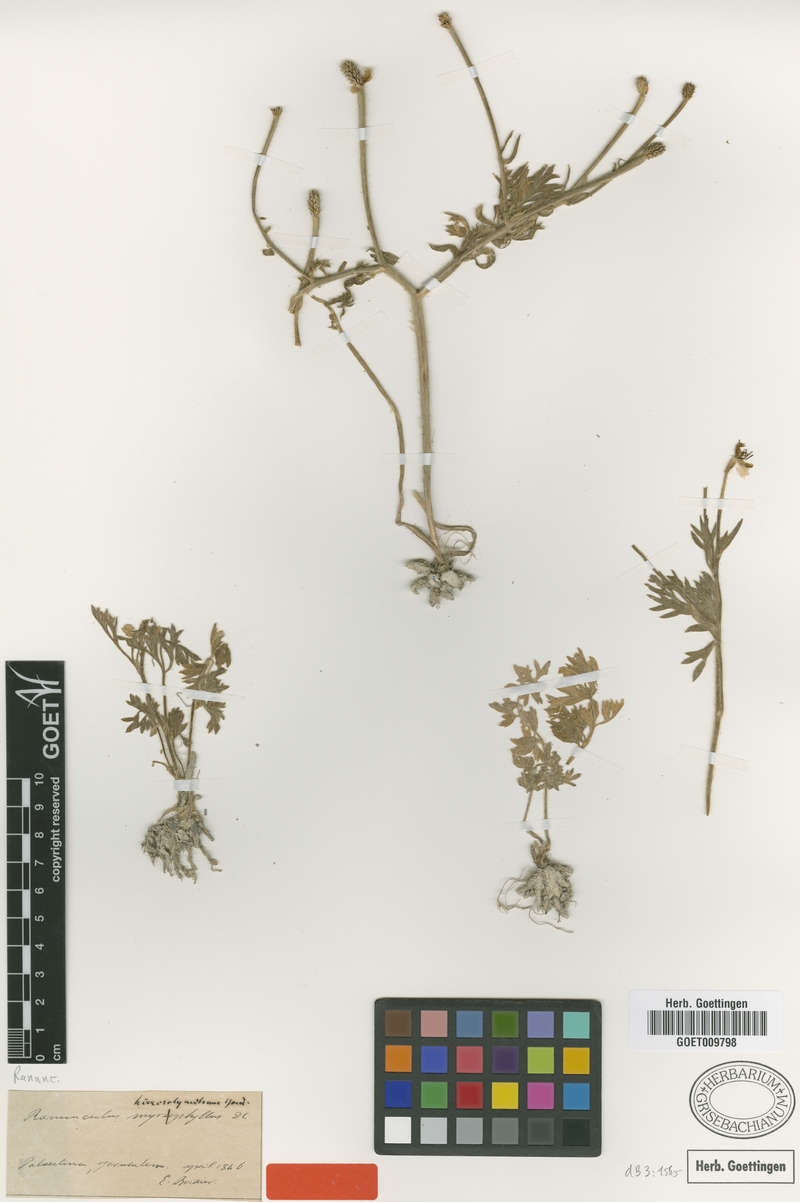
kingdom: Plantae
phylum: Tracheophyta
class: Magnoliopsida
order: Ranunculales
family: Ranunculaceae
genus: Ranunculus
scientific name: Ranunculus millefolius
